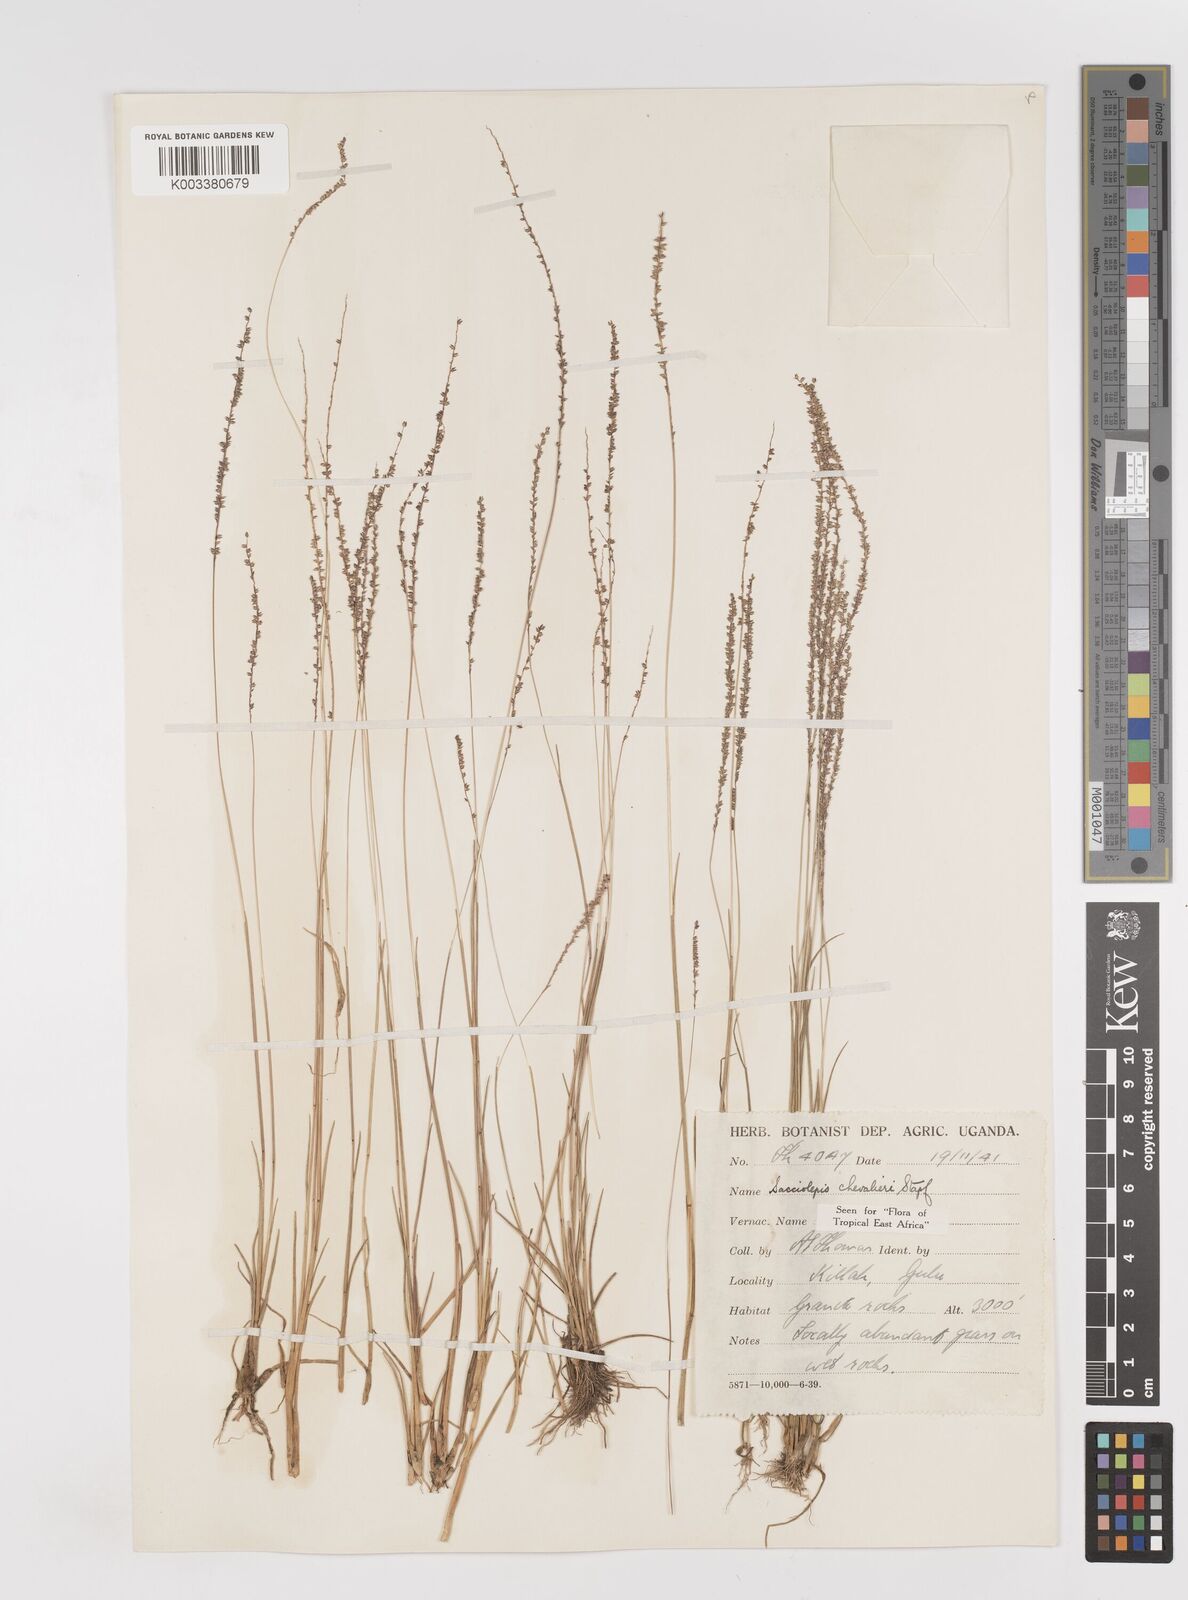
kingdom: Plantae
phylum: Tracheophyta
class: Liliopsida
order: Poales
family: Poaceae
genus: Sacciolepis
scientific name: Sacciolepis chevalieri
